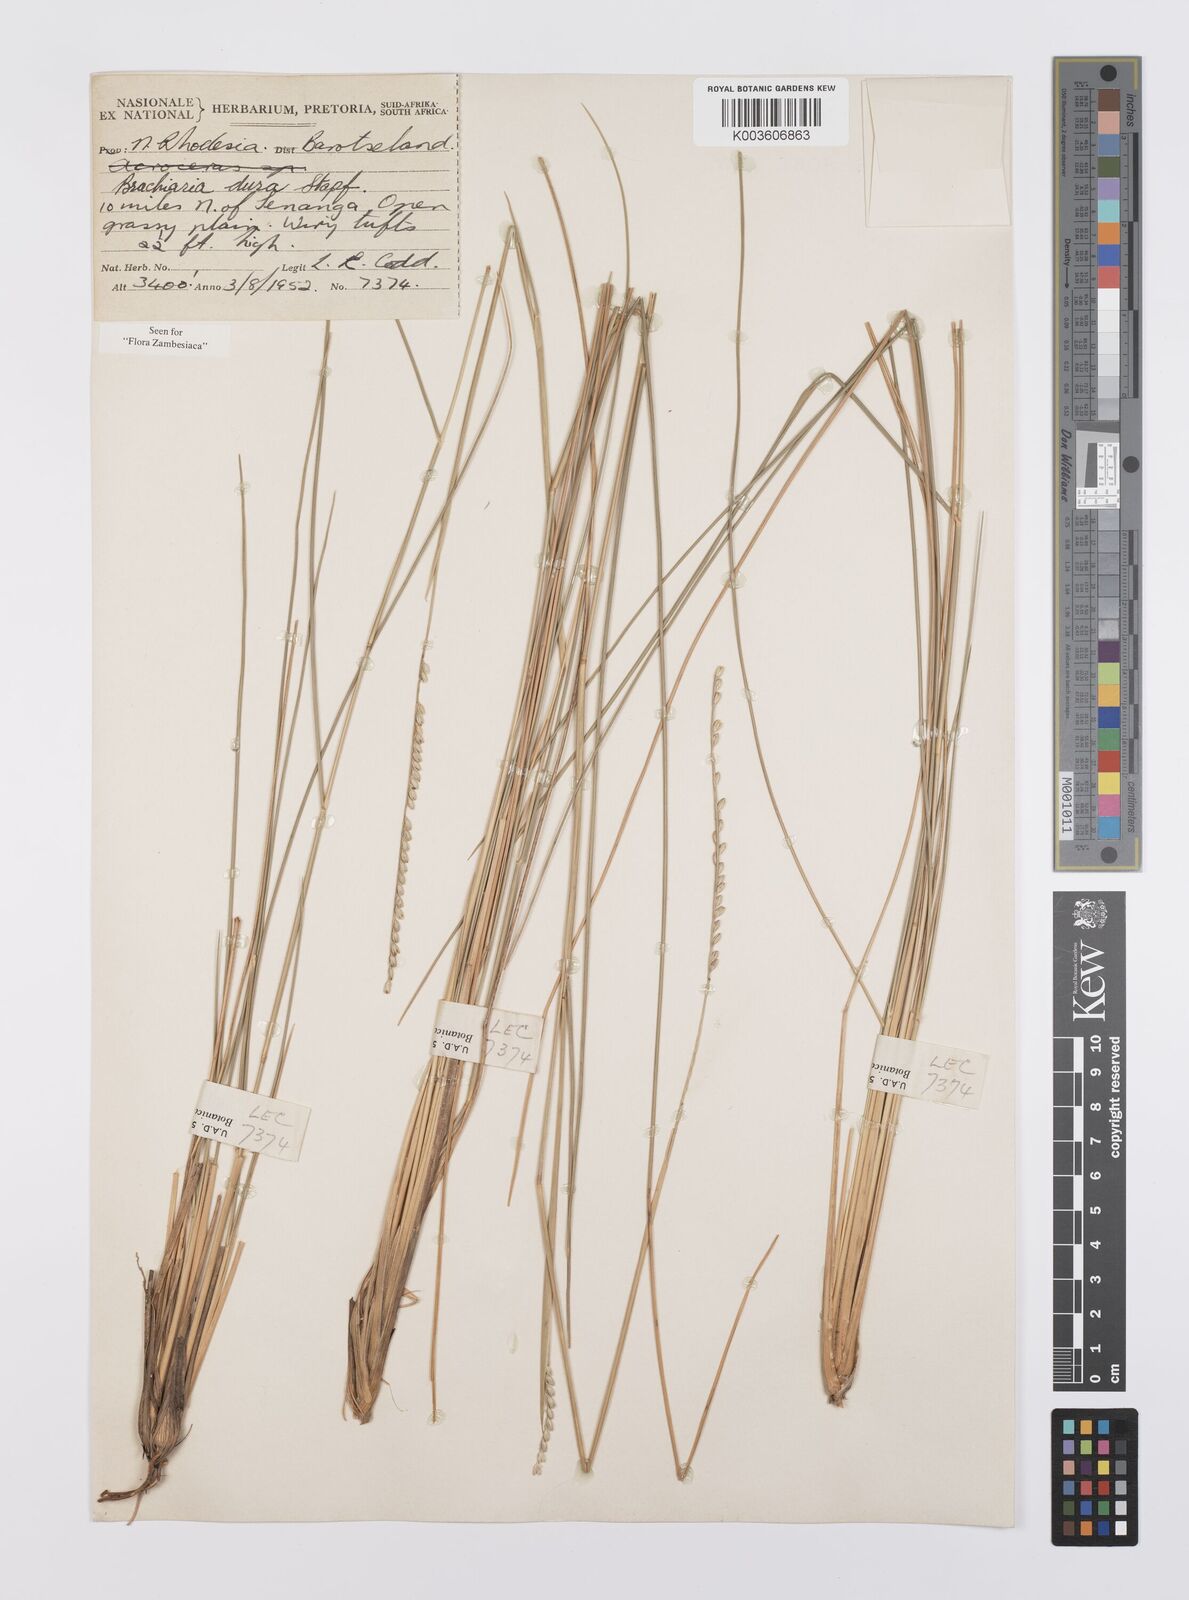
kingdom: Plantae
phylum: Tracheophyta
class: Liliopsida
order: Poales
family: Poaceae
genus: Urochloa
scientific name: Urochloa dura
